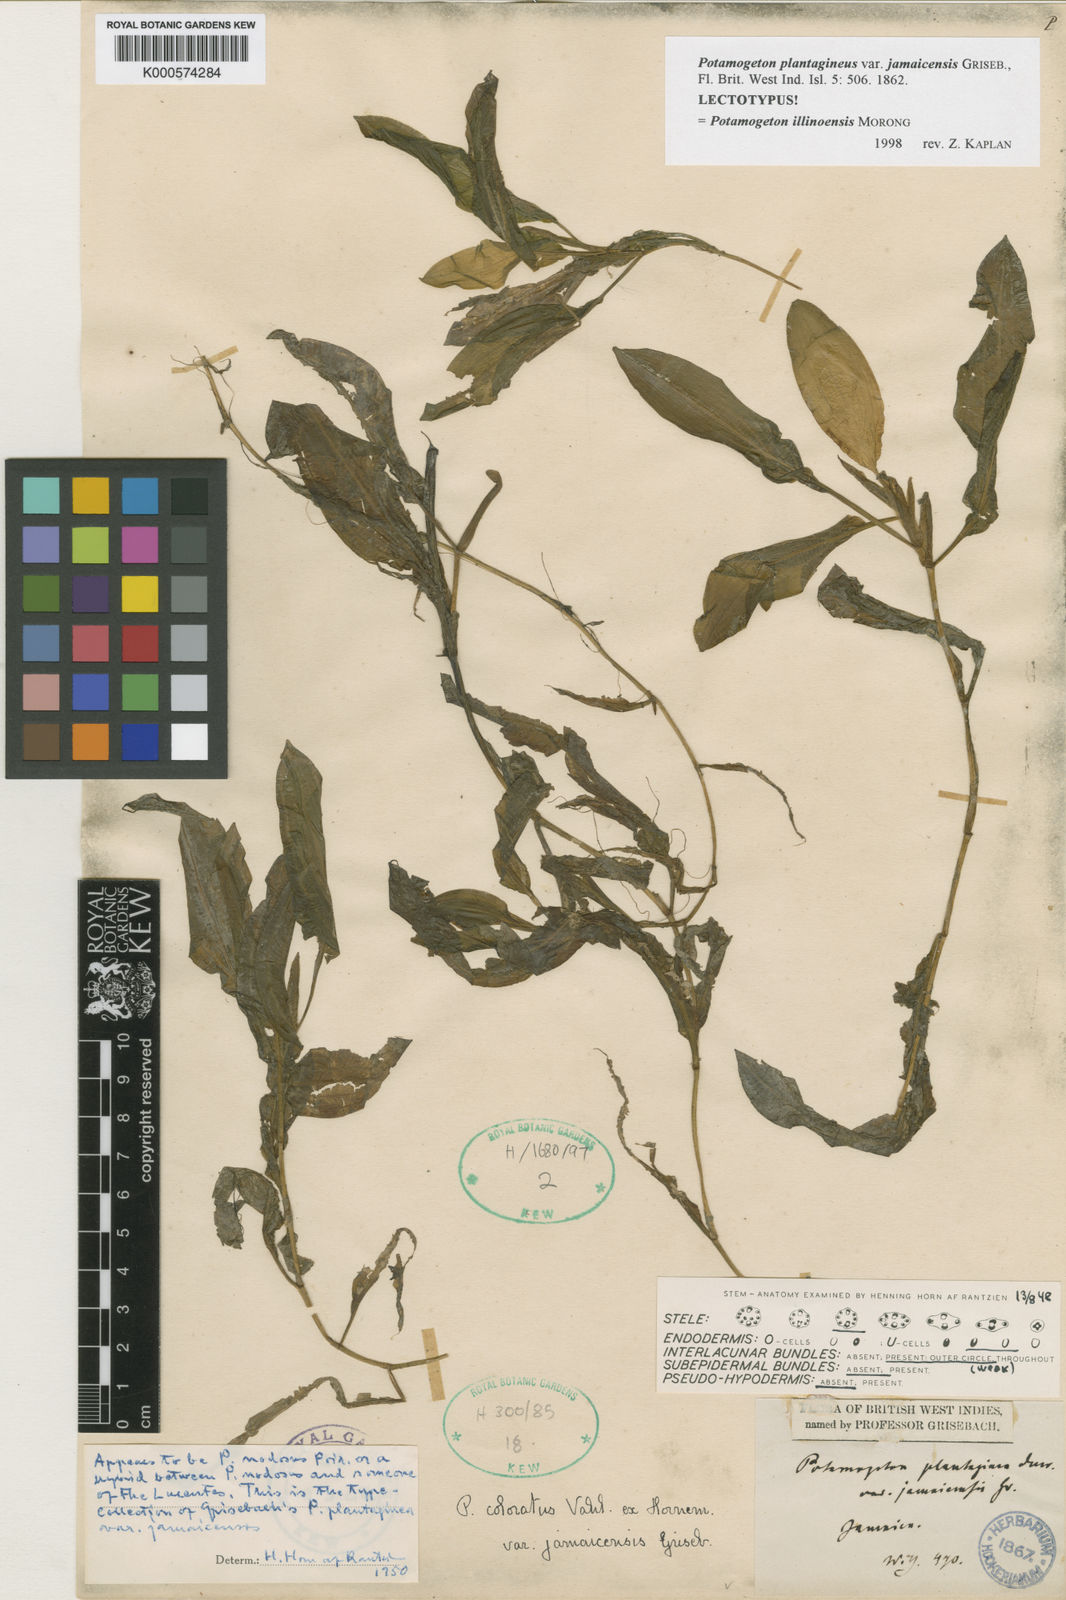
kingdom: Plantae
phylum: Tracheophyta
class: Liliopsida
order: Alismatales
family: Potamogetonaceae
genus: Potamogeton
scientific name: Potamogeton nodosus
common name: Loddon pondweed
